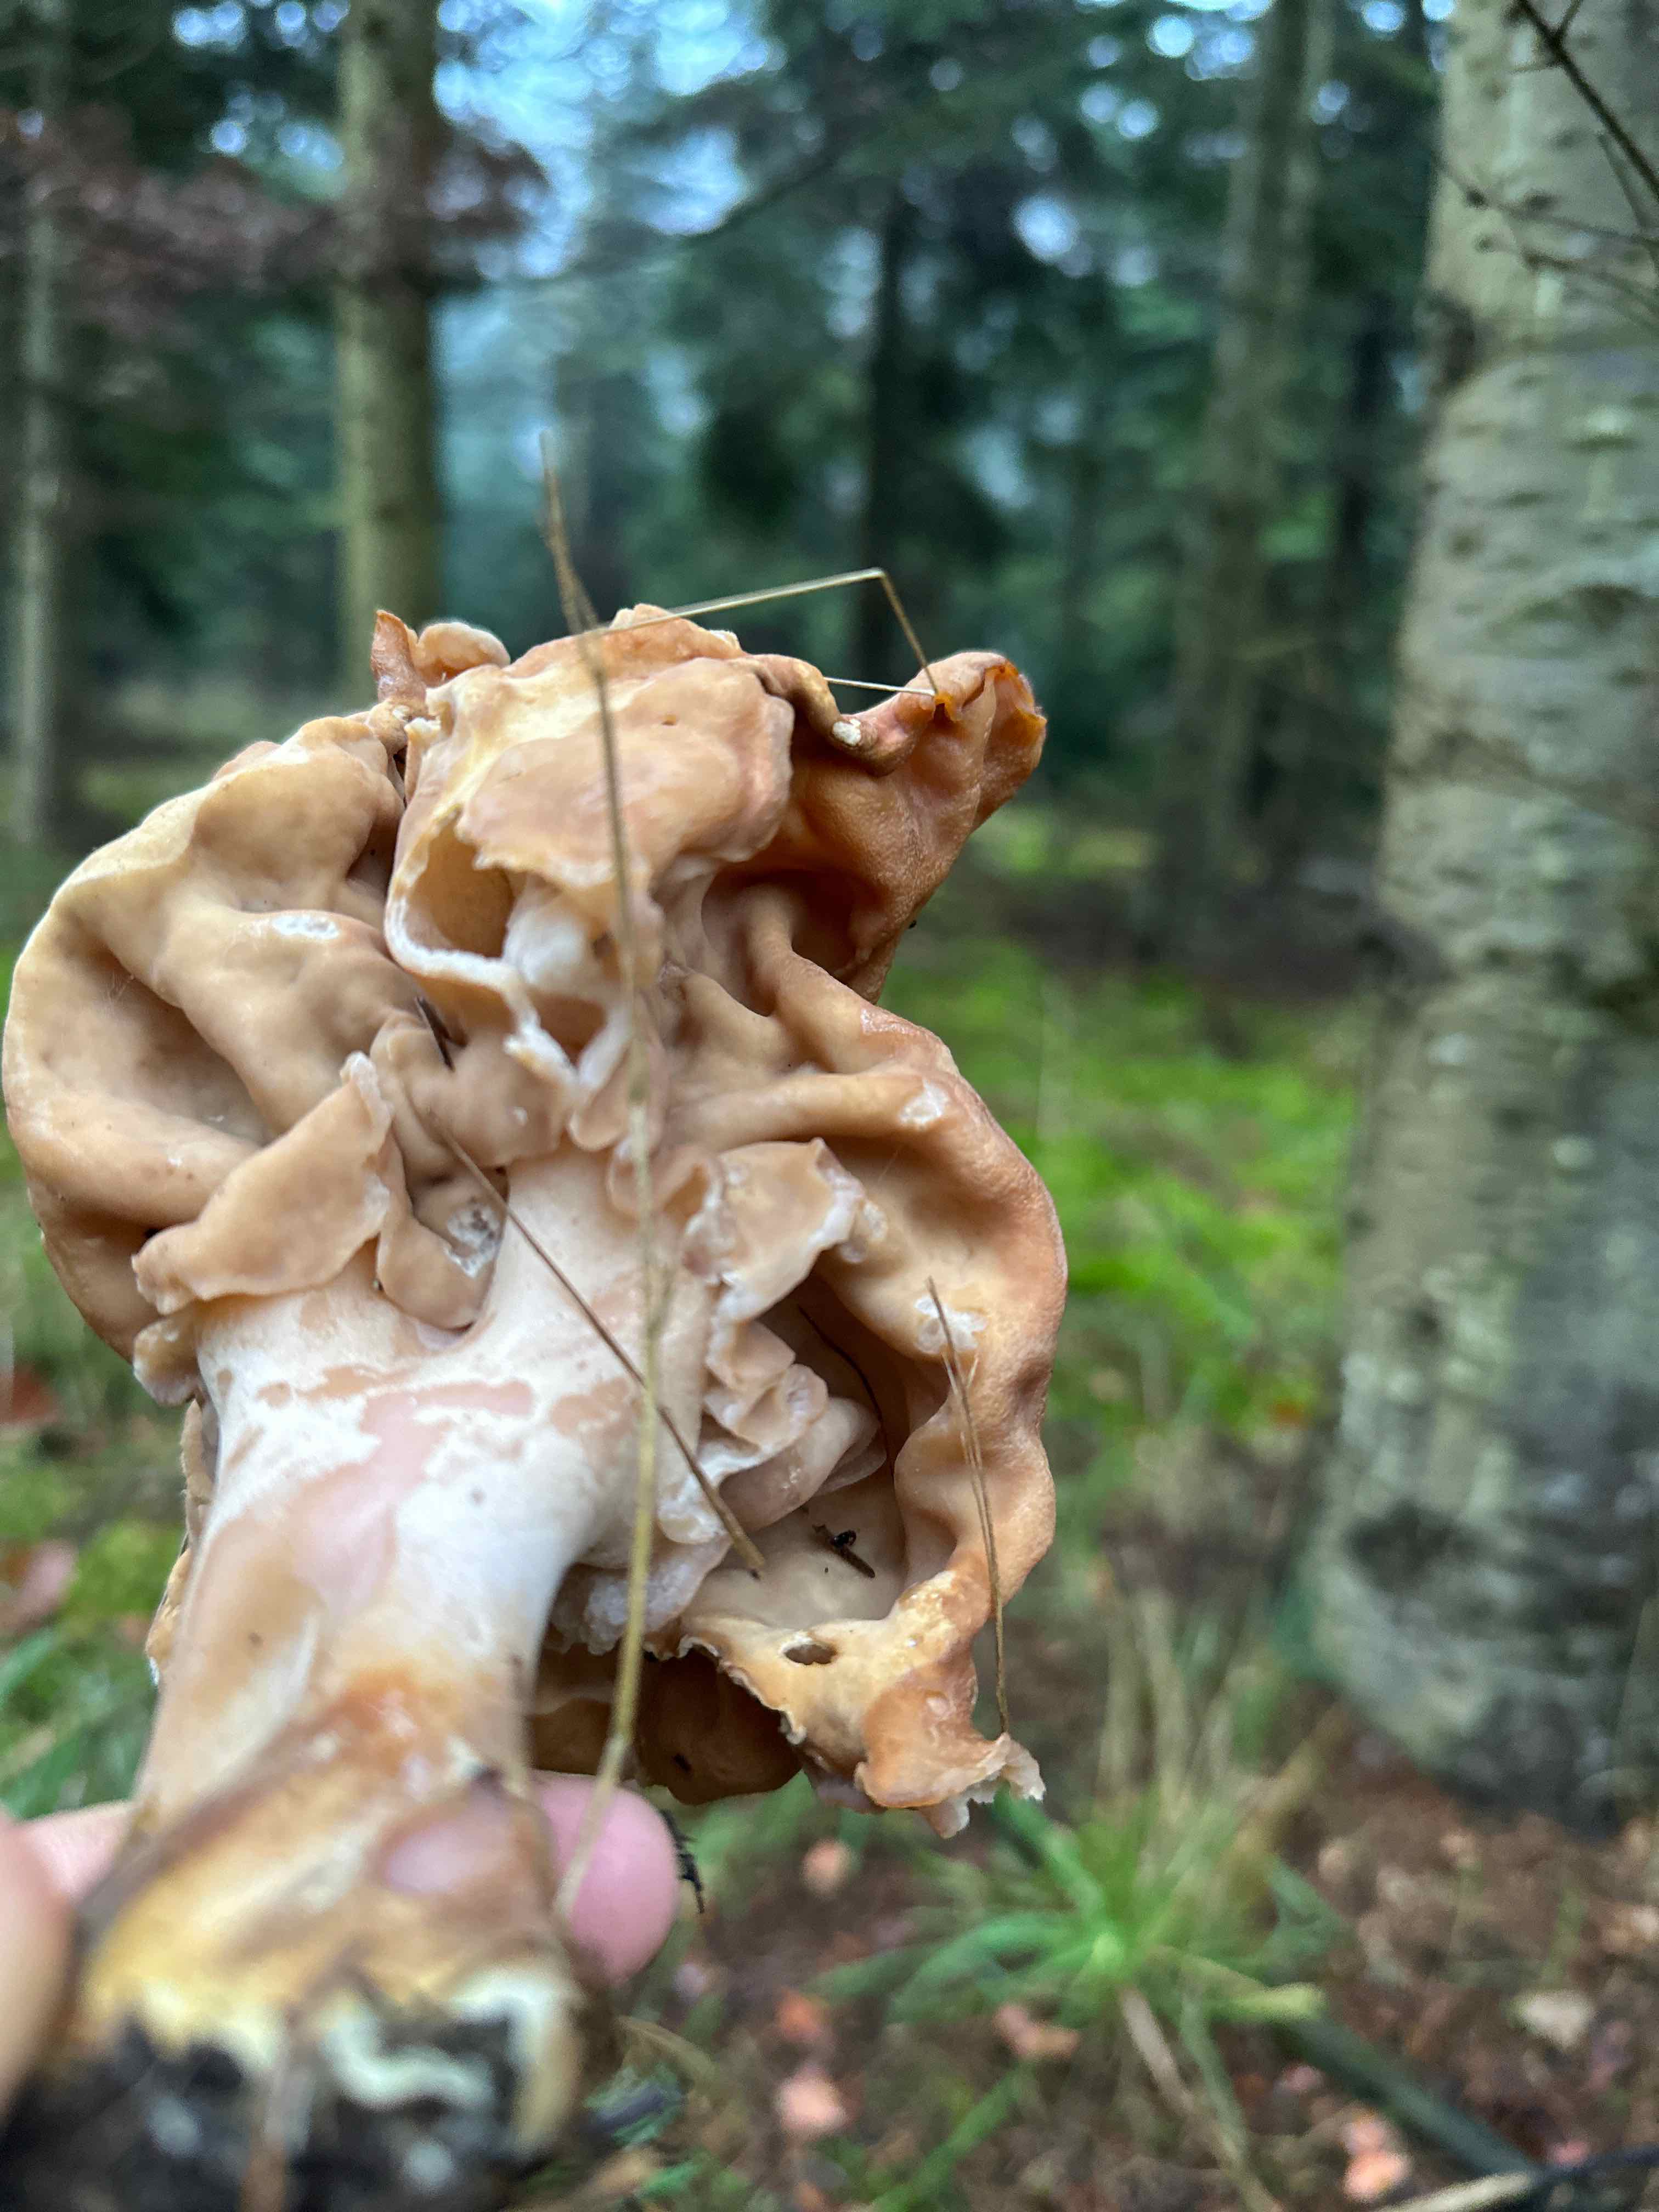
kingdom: Fungi
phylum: Ascomycota
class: Pezizomycetes
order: Pezizales
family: Discinaceae
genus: Gyromitra
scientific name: Gyromitra infula
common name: bispehue-stenmorkel
